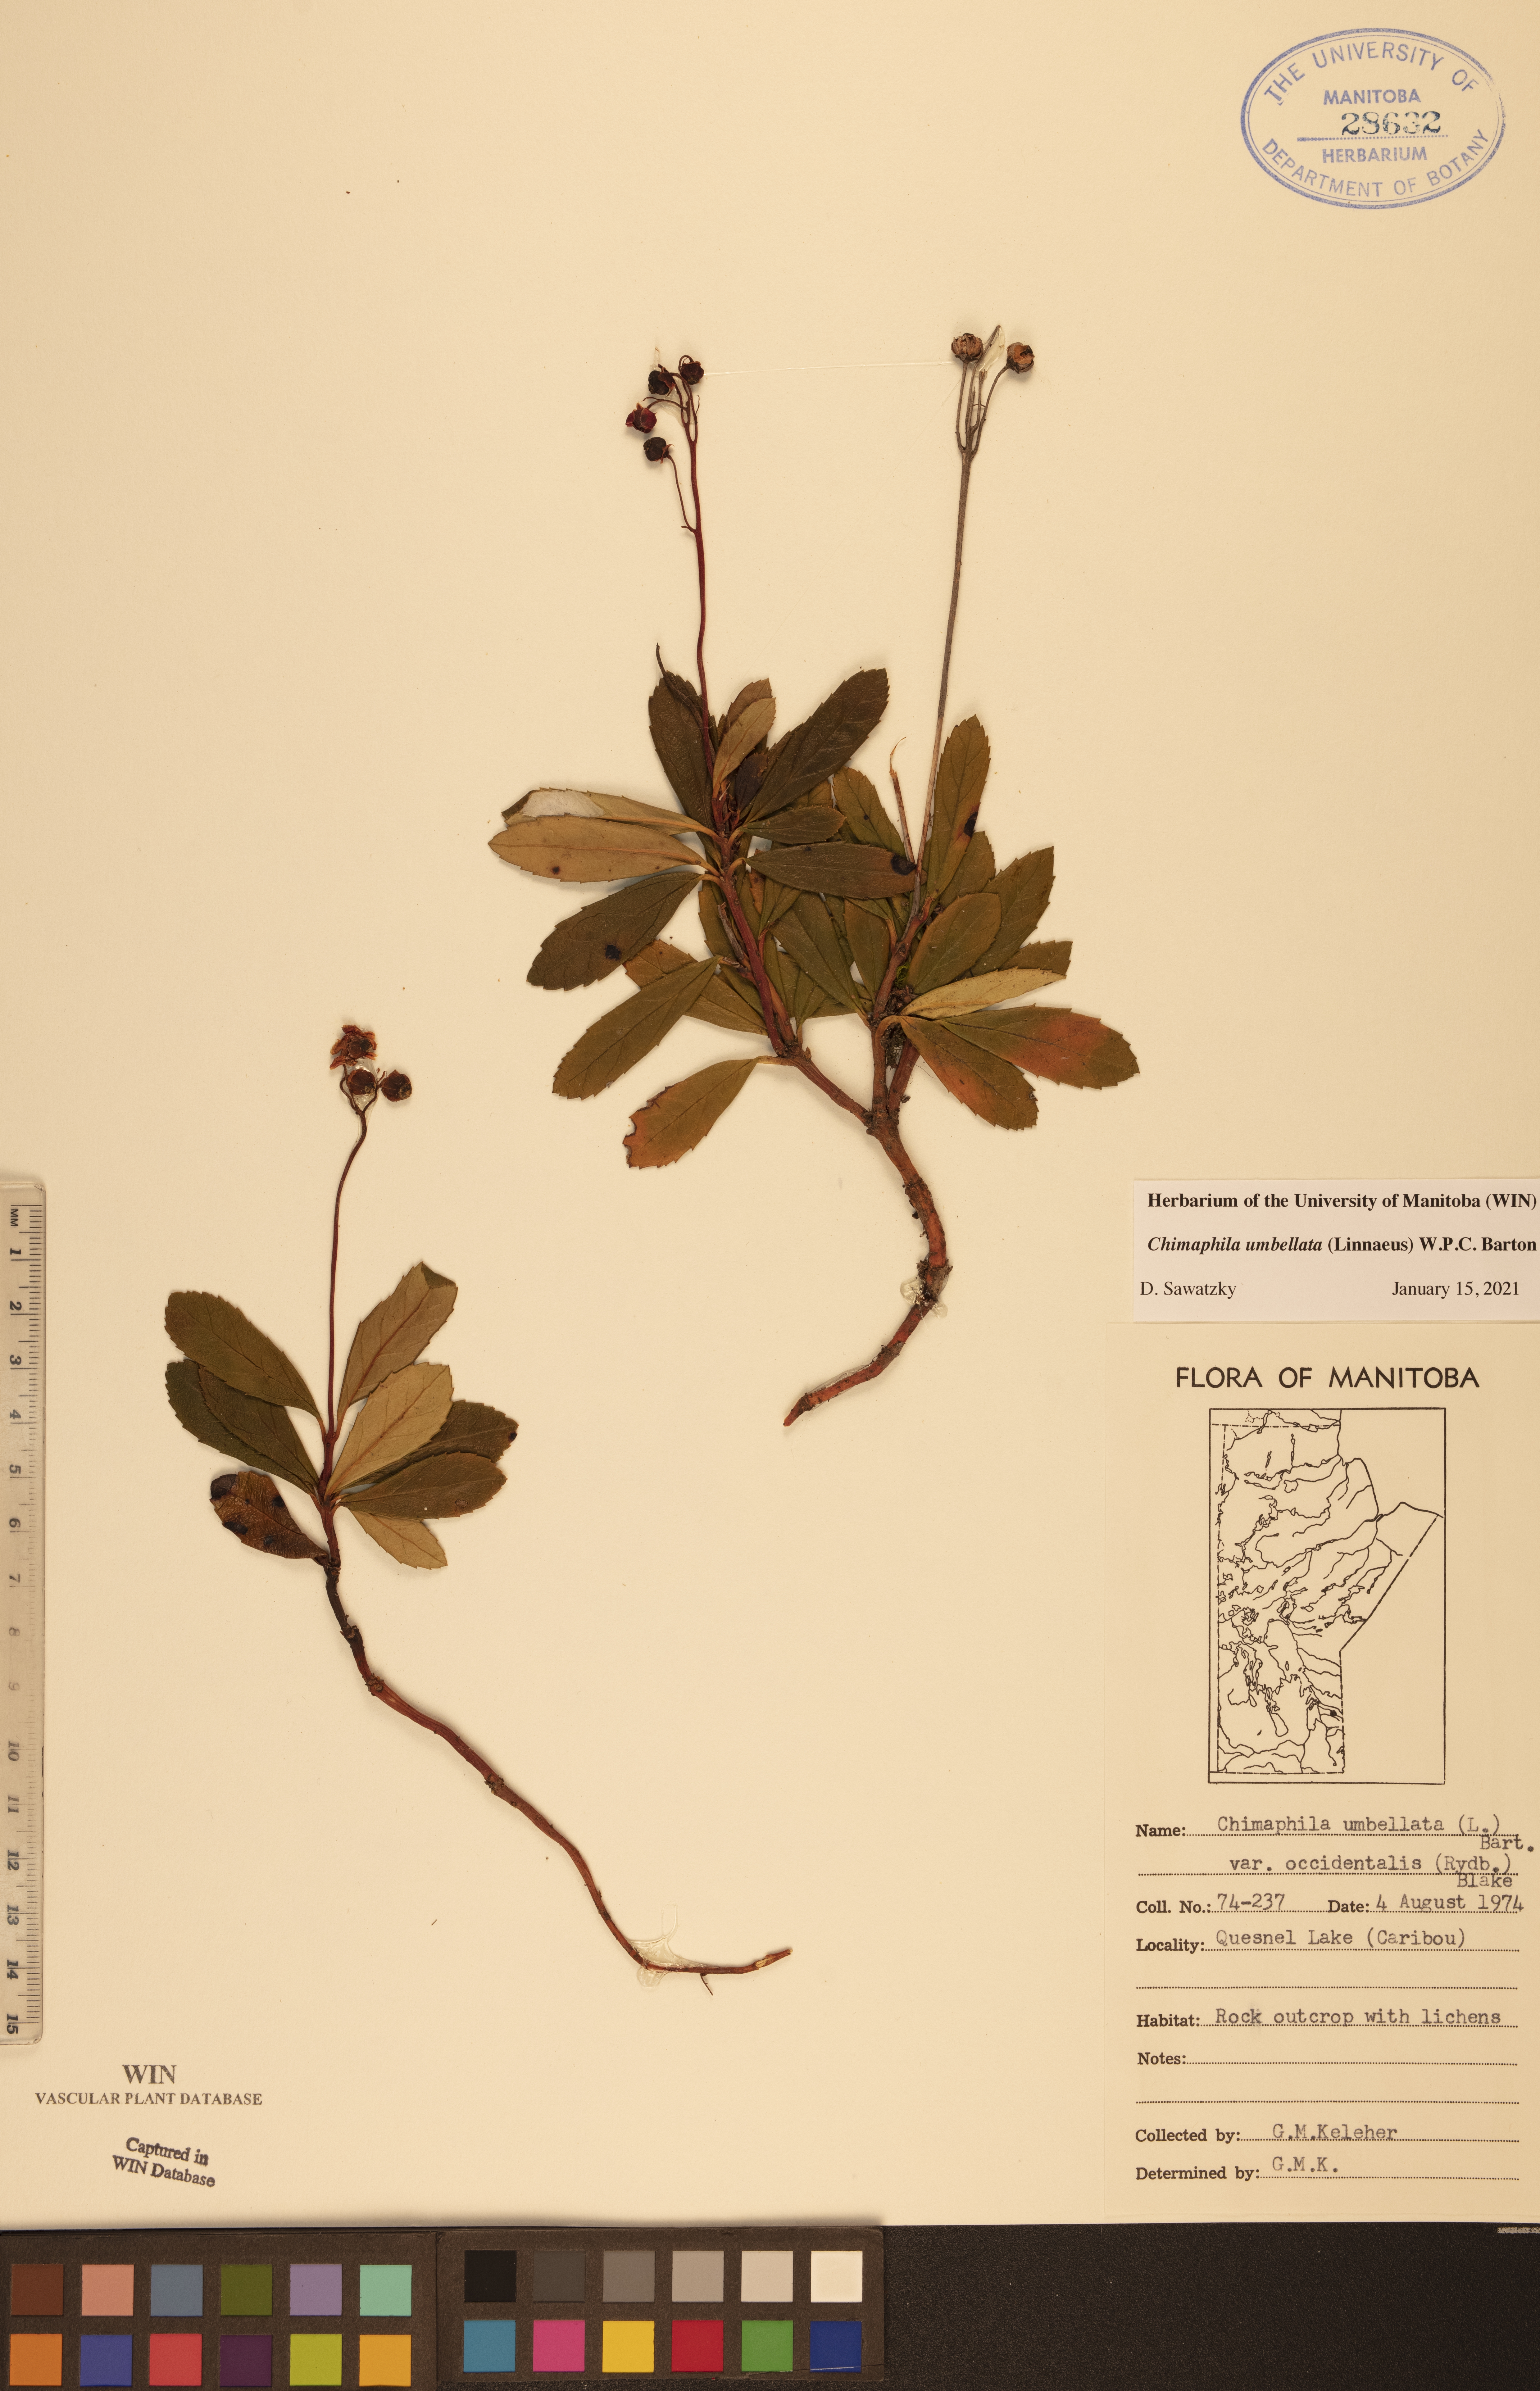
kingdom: Plantae
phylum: Tracheophyta
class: Magnoliopsida
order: Ericales
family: Ericaceae
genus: Chimaphila
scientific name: Chimaphila umbellata
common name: Pipsissewa
